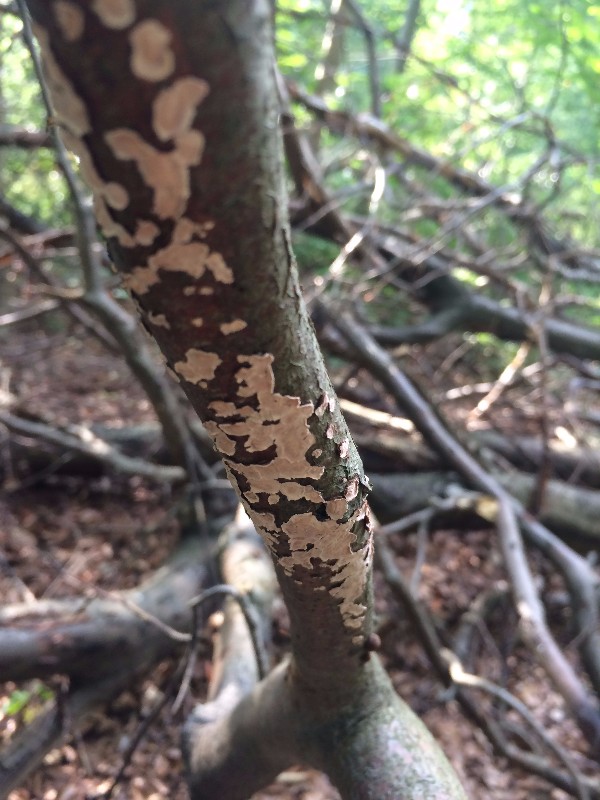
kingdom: Fungi
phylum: Basidiomycota
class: Agaricomycetes
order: Agaricales
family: Physalacriaceae
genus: Cylindrobasidium
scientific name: Cylindrobasidium
